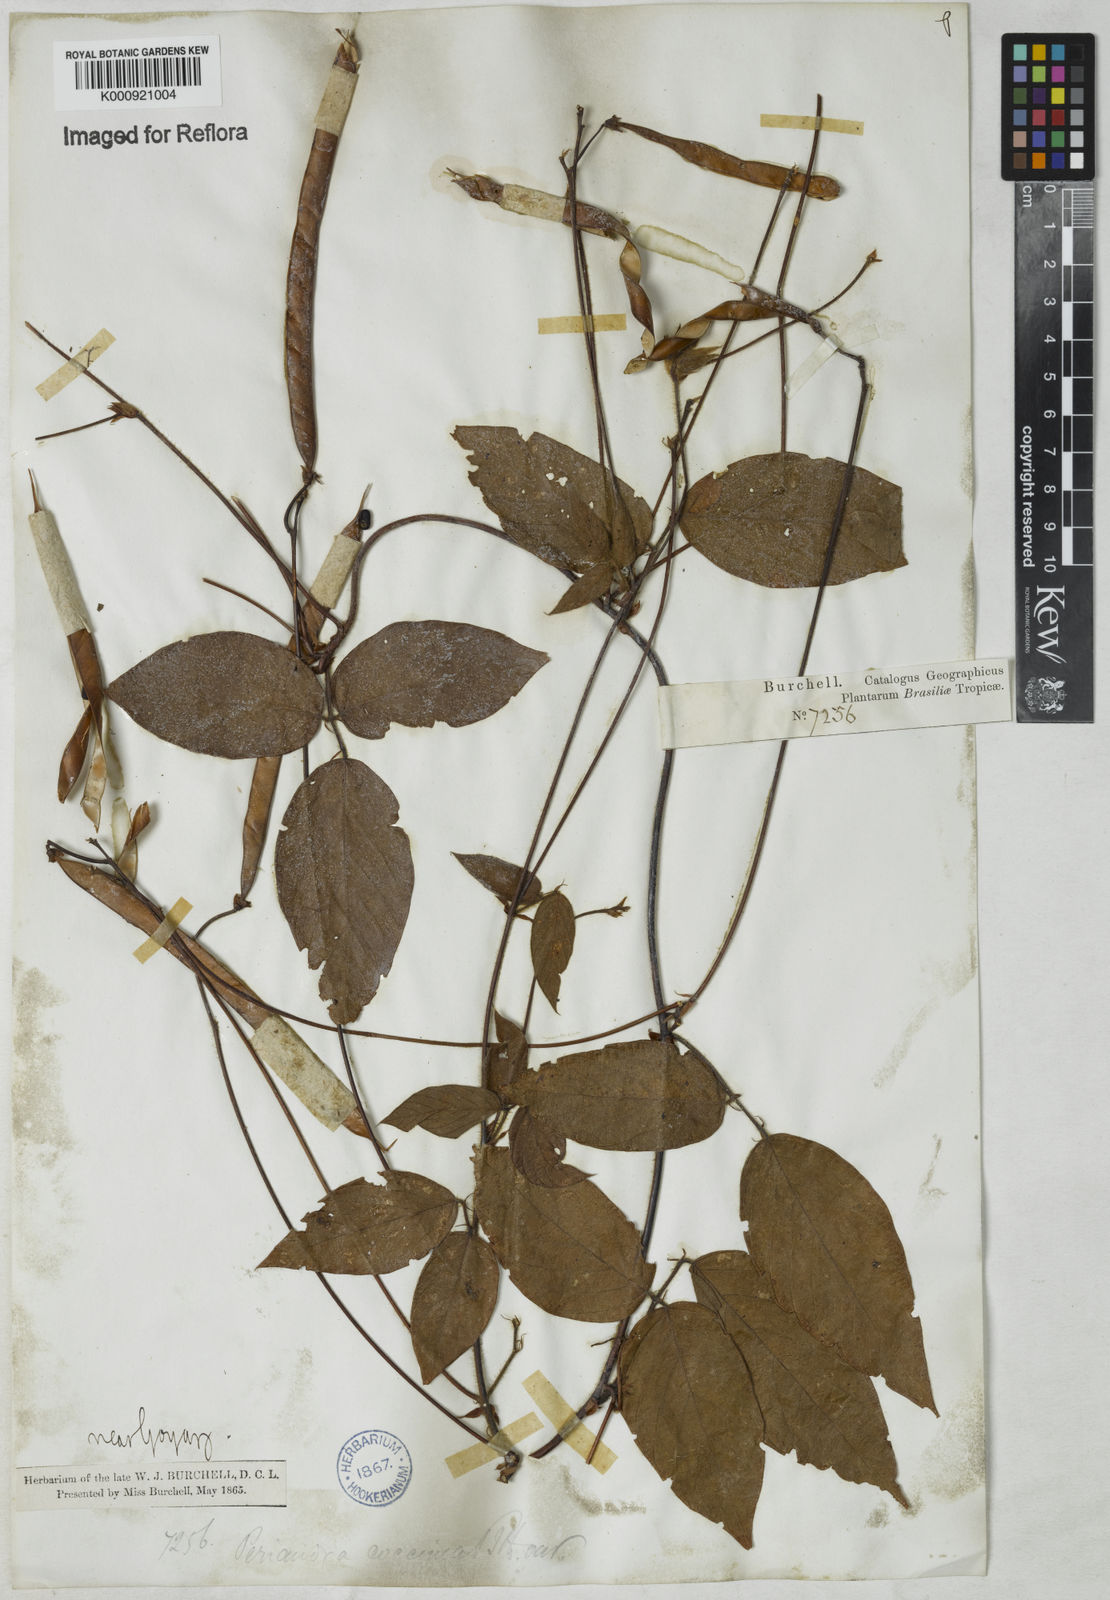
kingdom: Plantae
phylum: Tracheophyta
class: Magnoliopsida
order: Fabales
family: Fabaceae
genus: Periandra
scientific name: Periandra coccinea
